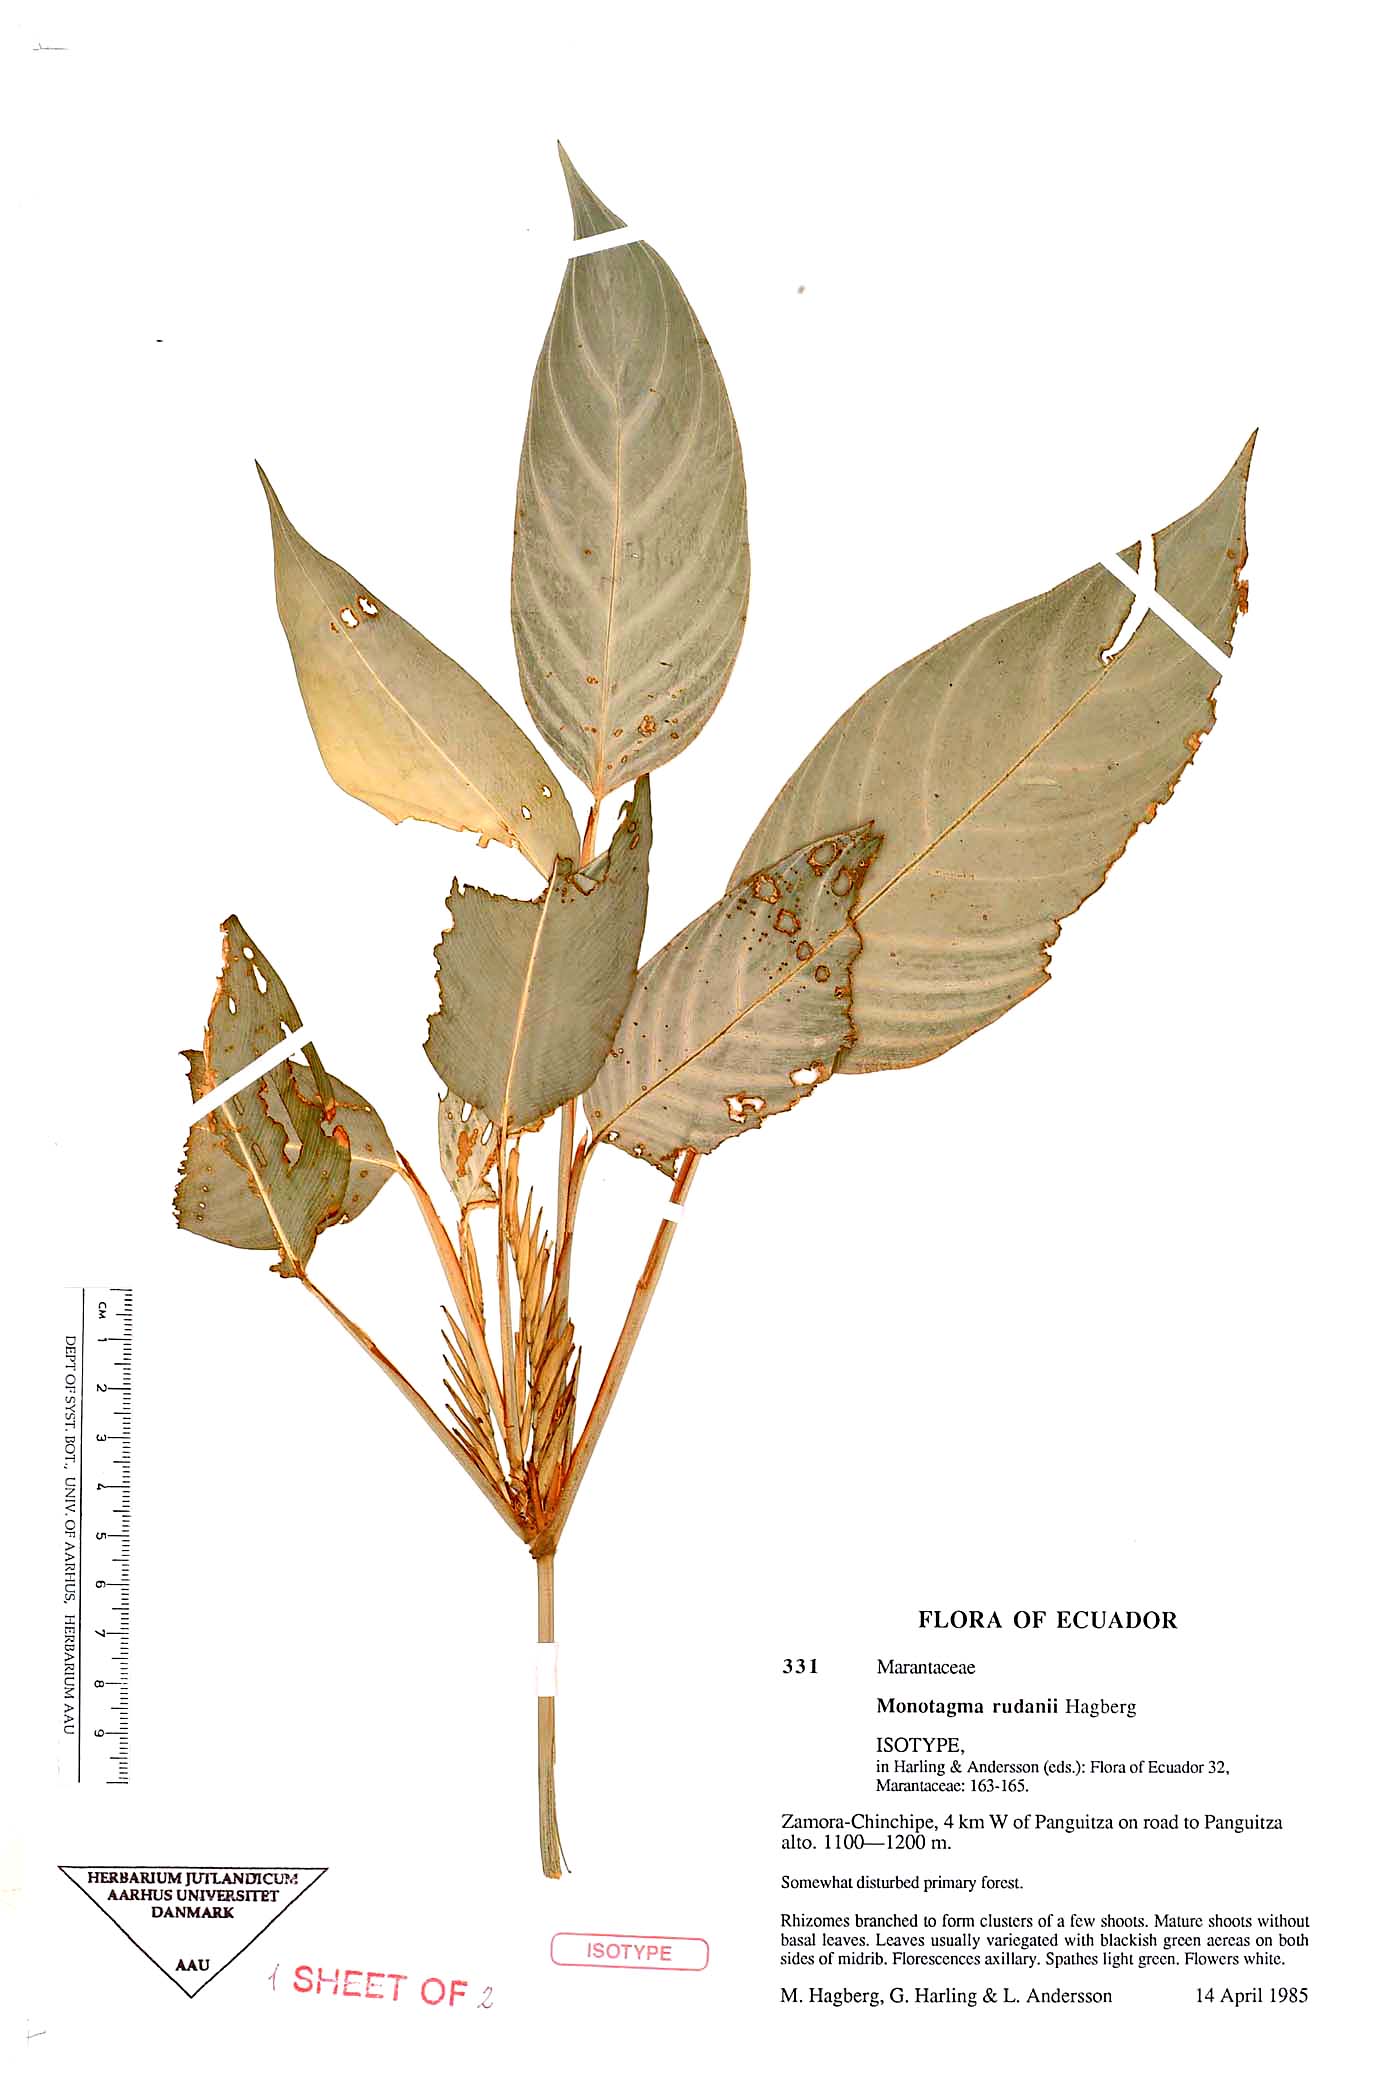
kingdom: Plantae
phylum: Tracheophyta
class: Liliopsida
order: Zingiberales
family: Marantaceae
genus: Monotagma
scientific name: Monotagma rudanii
